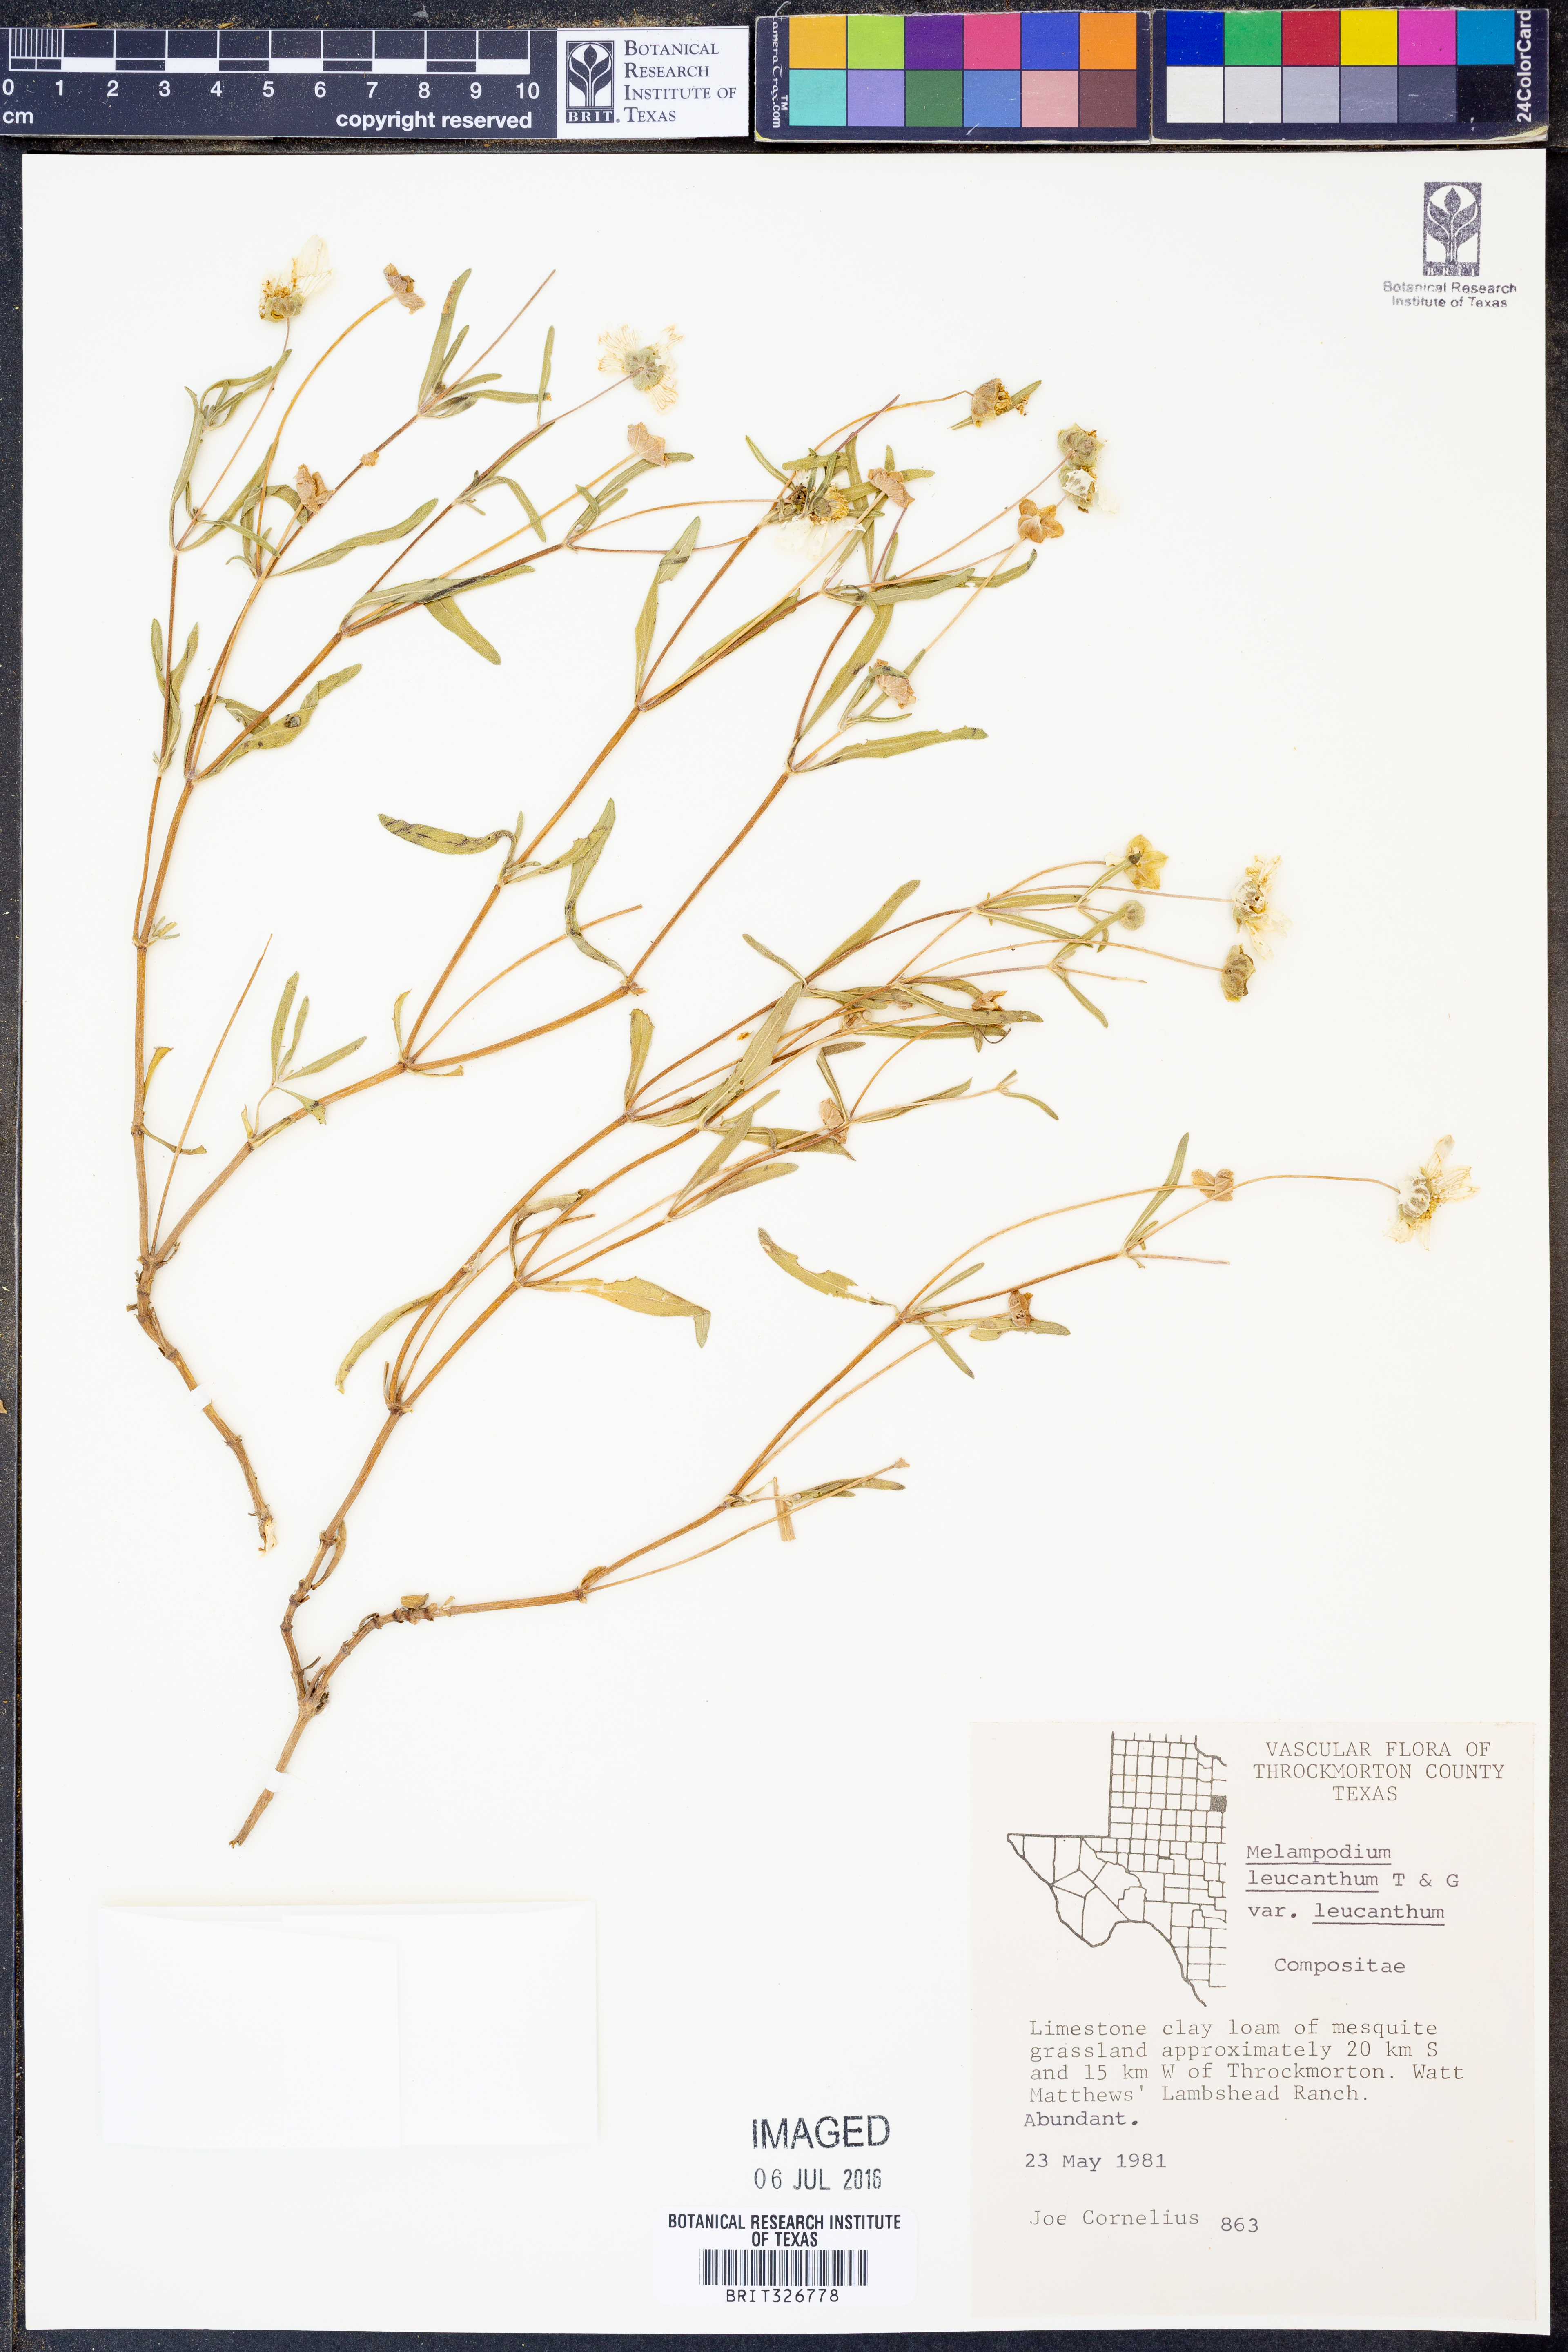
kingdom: Plantae
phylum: Tracheophyta
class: Magnoliopsida
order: Asterales
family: Asteraceae
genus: Melampodium
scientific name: Melampodium leucanthum
